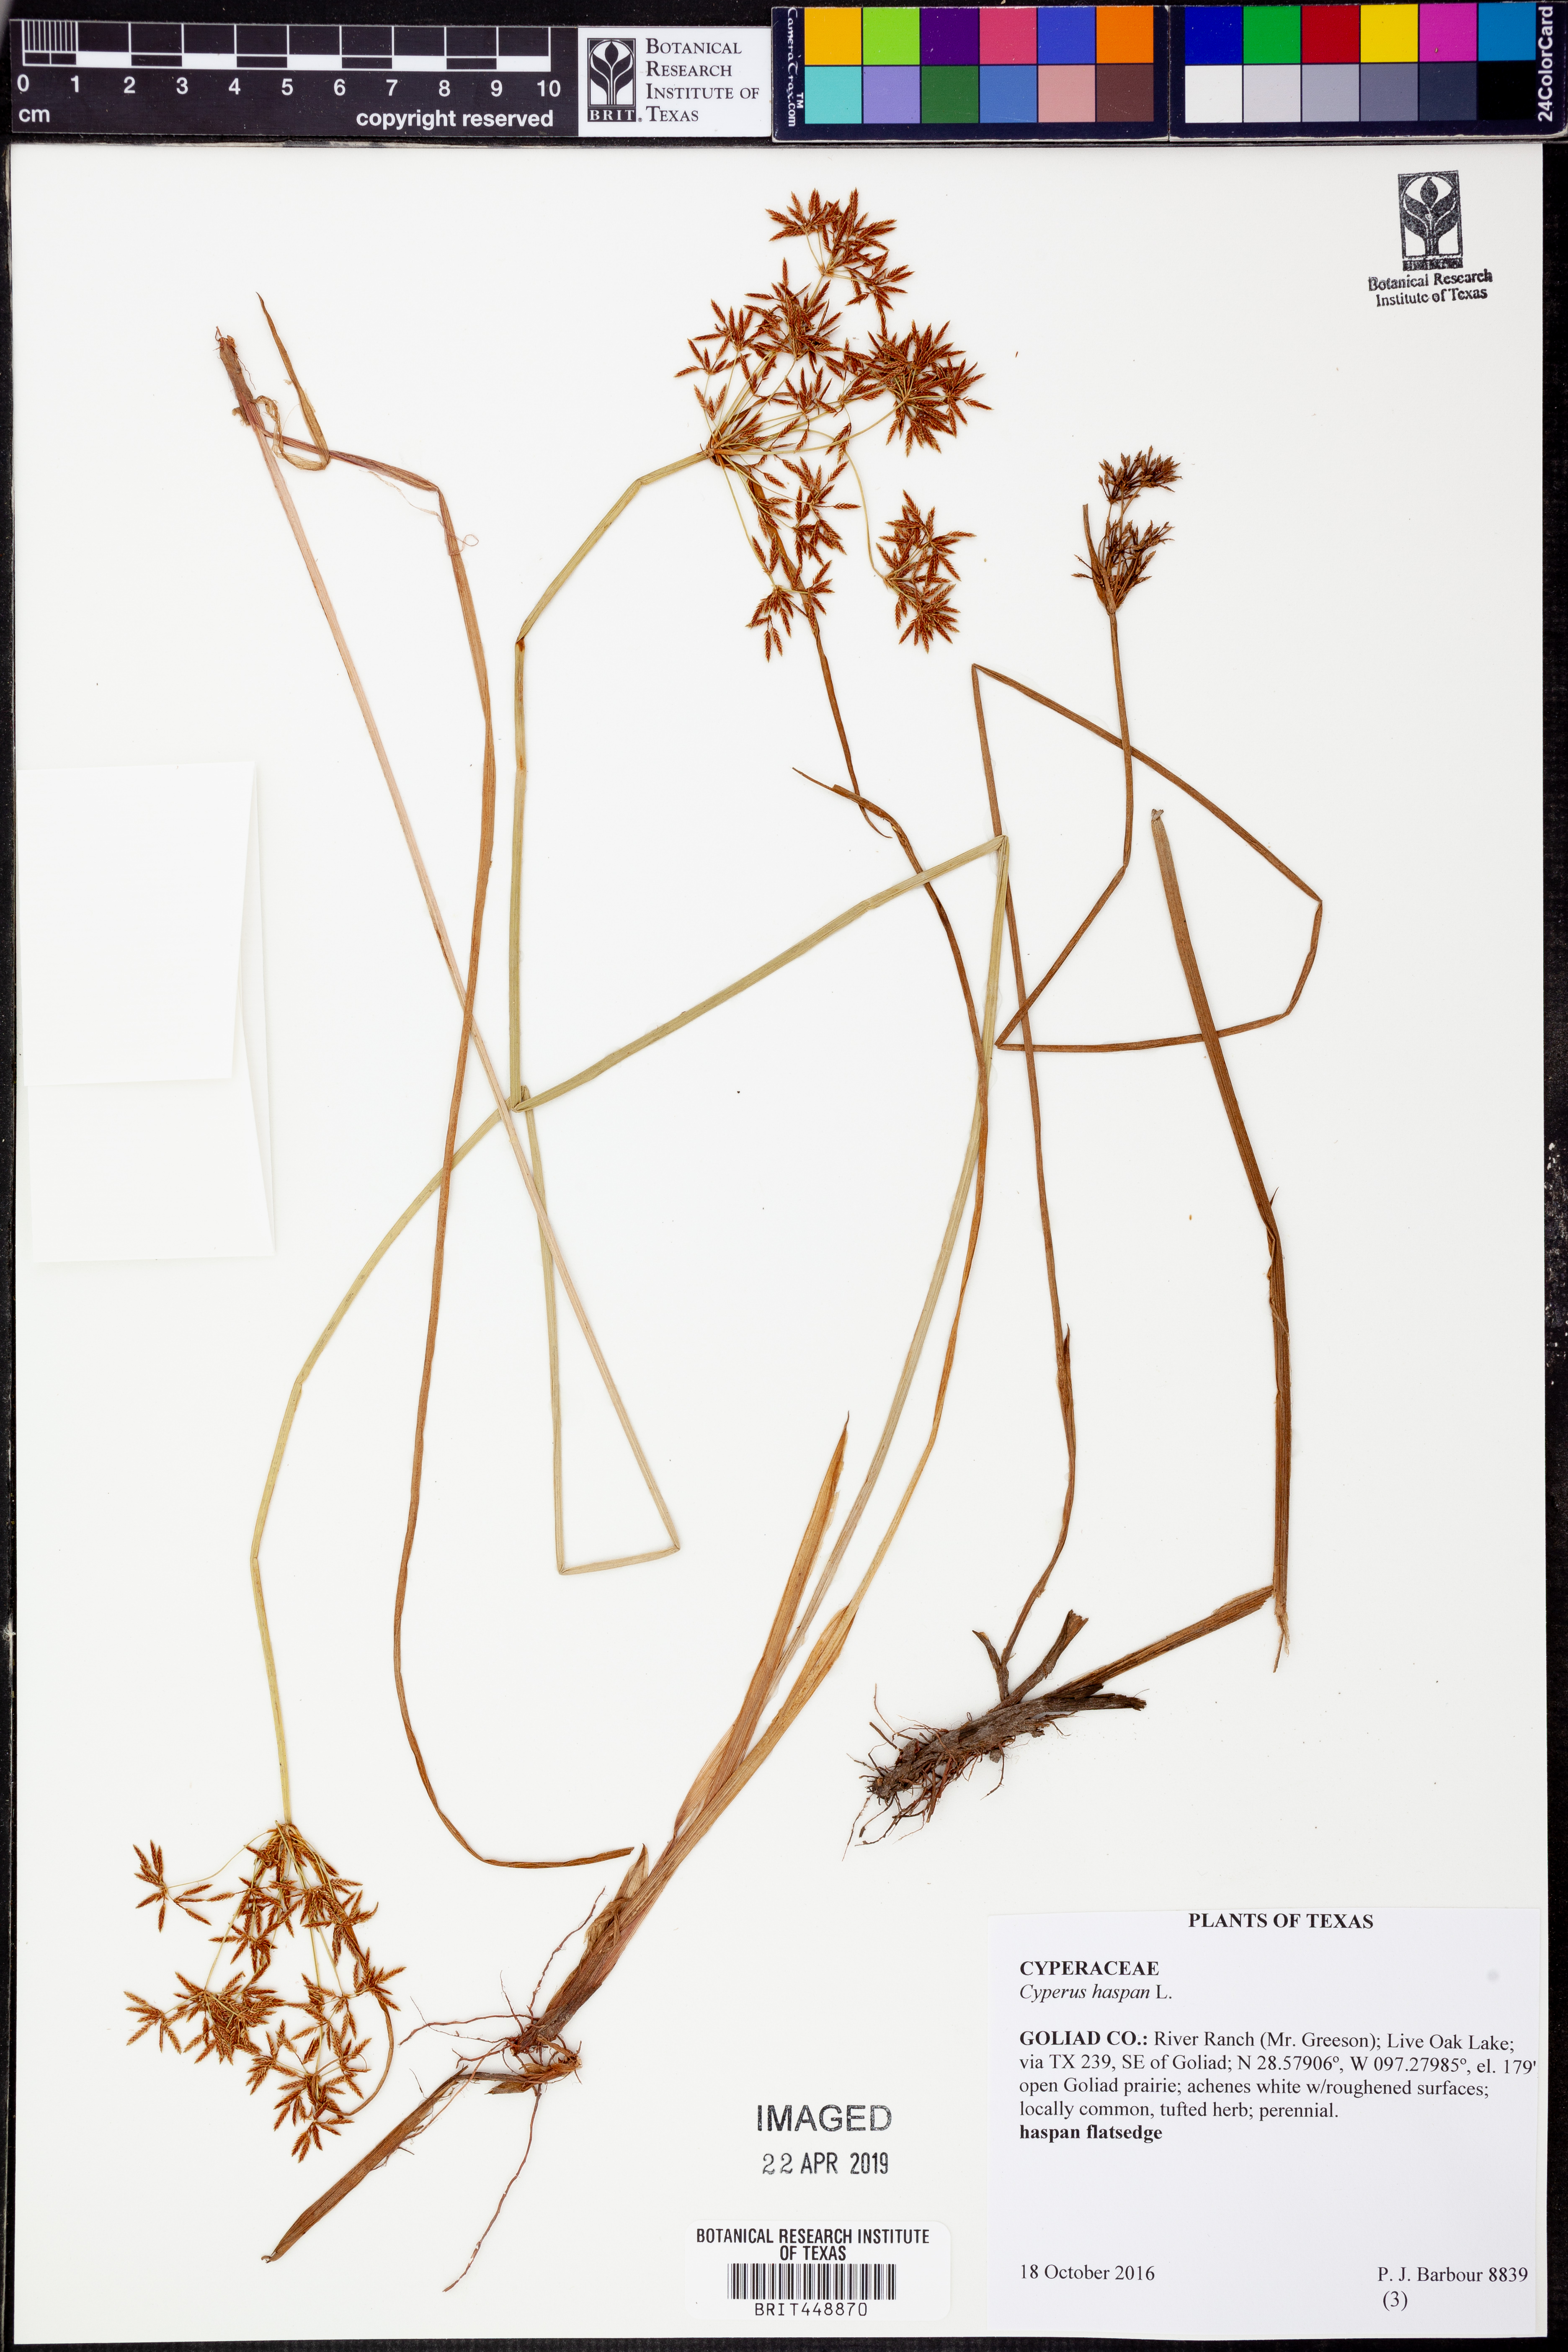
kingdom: Plantae
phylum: Tracheophyta
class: Liliopsida
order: Poales
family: Cyperaceae
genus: Cyperus
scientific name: Cyperus haspan
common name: Haspan flatsedge
